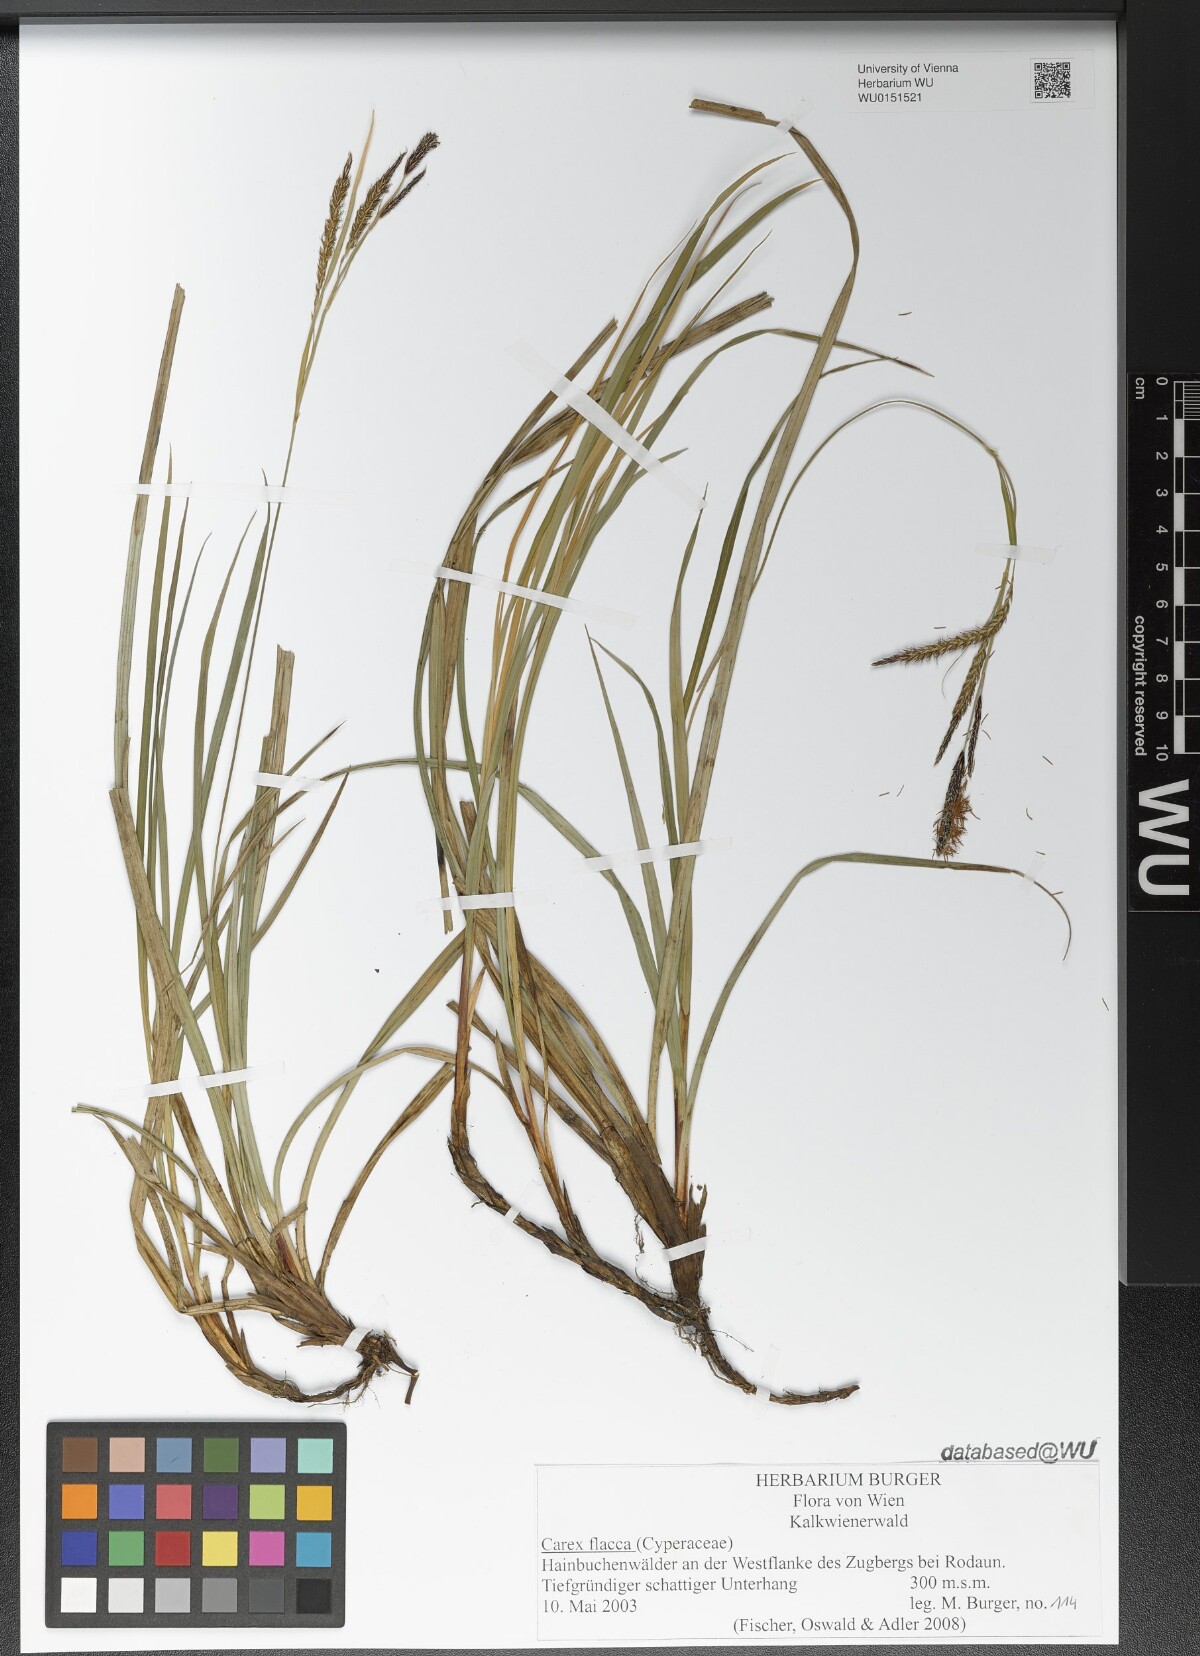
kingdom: Plantae
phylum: Tracheophyta
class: Liliopsida
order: Poales
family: Cyperaceae
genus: Carex
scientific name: Carex flacca
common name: Glaucous sedge
